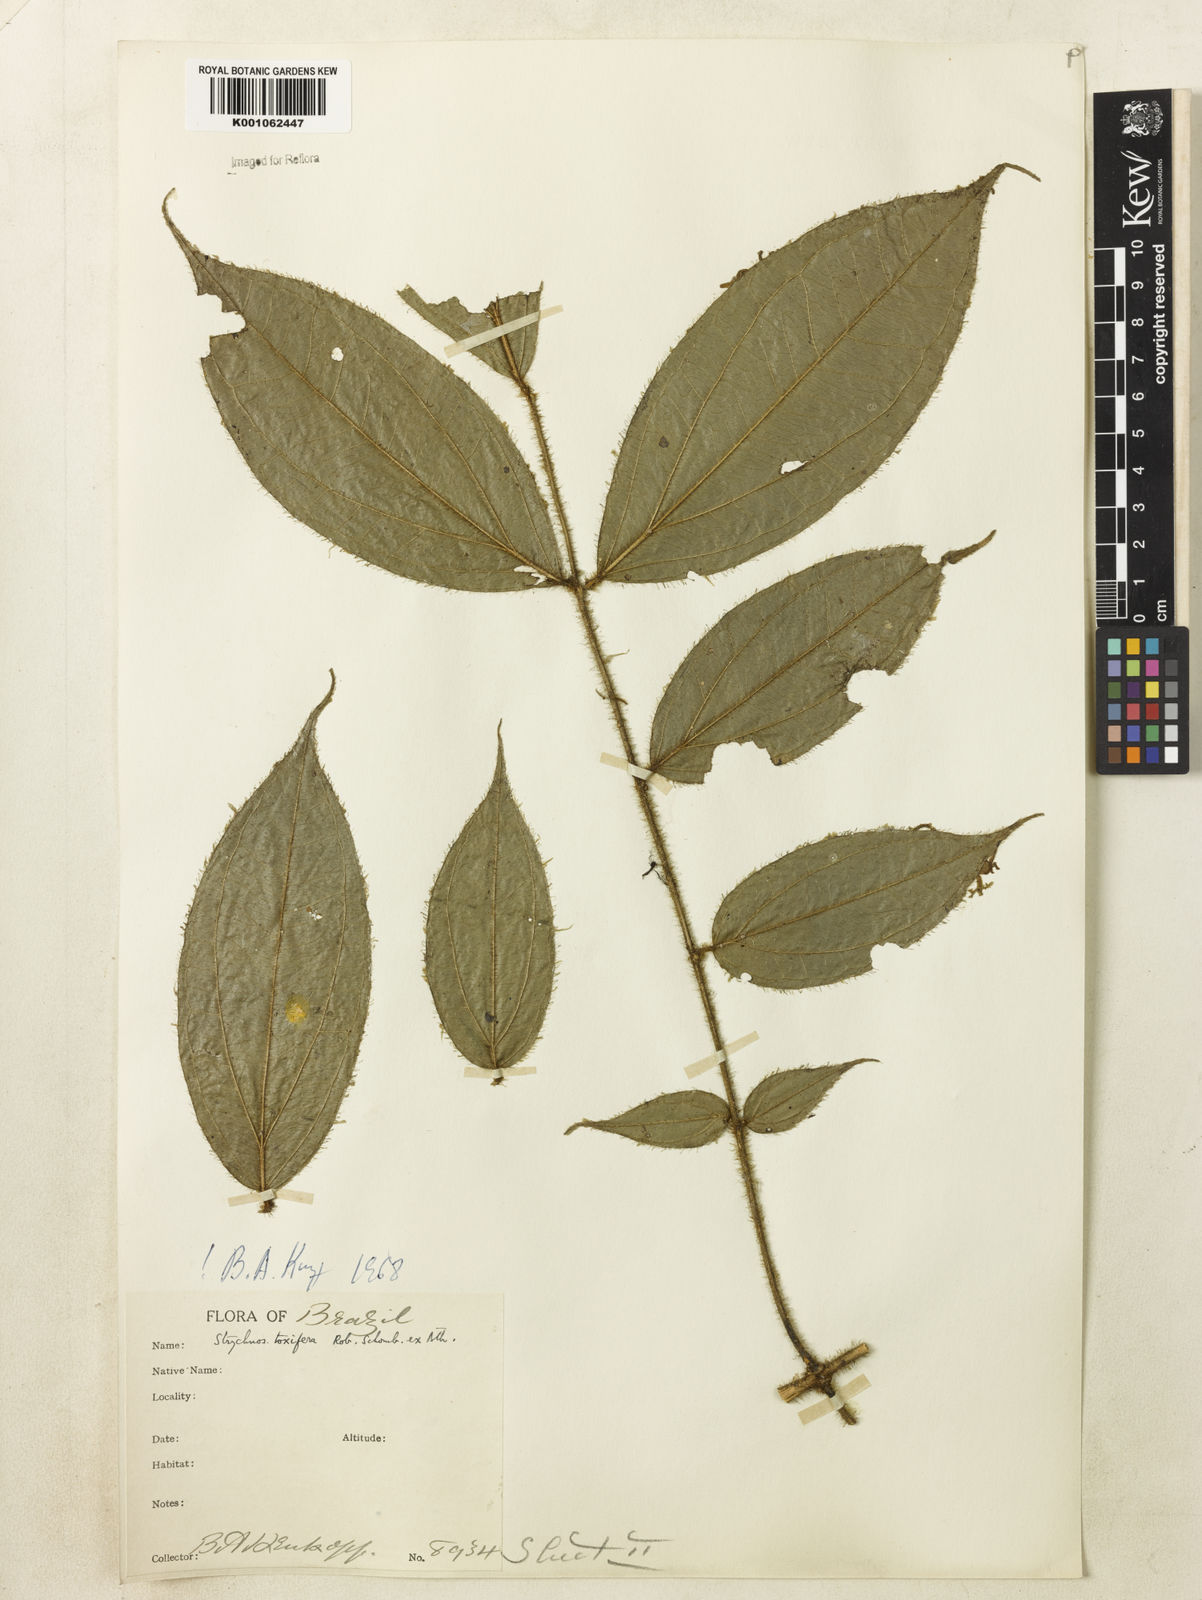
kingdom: Plantae
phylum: Tracheophyta
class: Magnoliopsida
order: Gentianales
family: Loganiaceae
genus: Strychnos
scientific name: Strychnos
